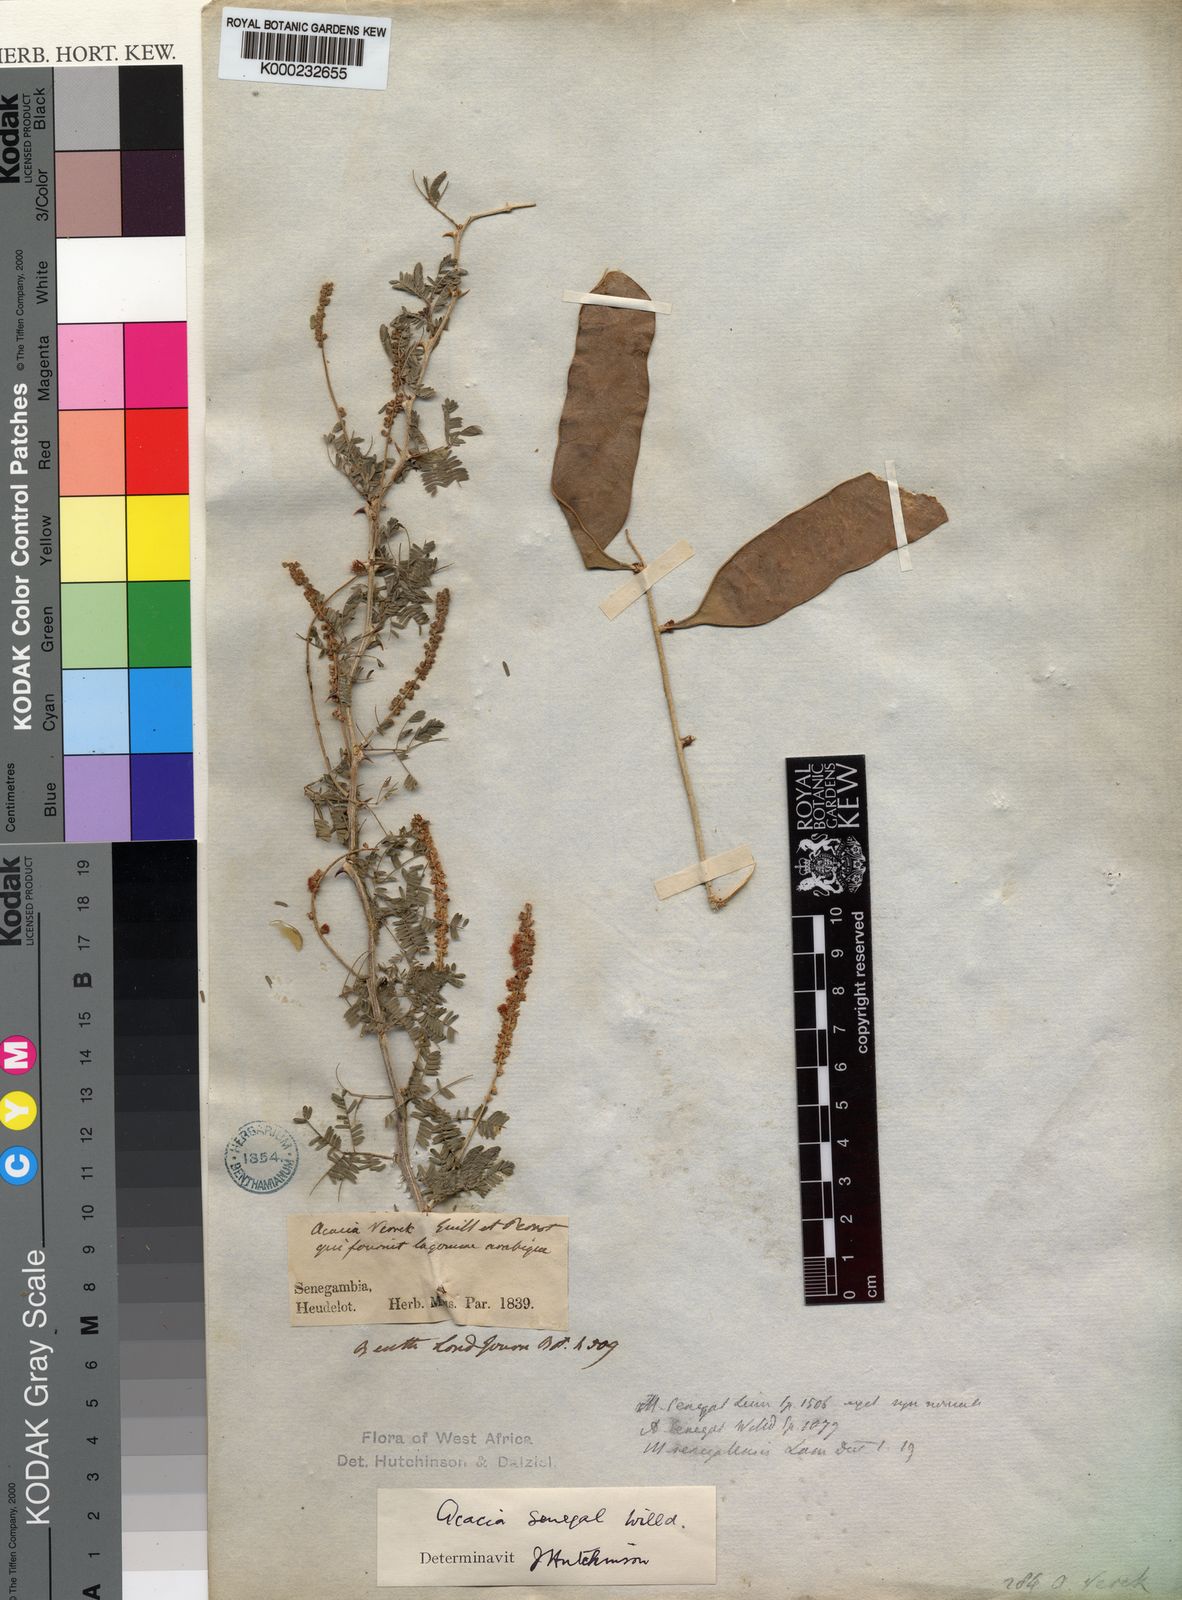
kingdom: Plantae
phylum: Tracheophyta
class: Magnoliopsida
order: Fabales
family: Fabaceae
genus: Senegalia
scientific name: Senegalia senegal
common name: Senegal-gum
